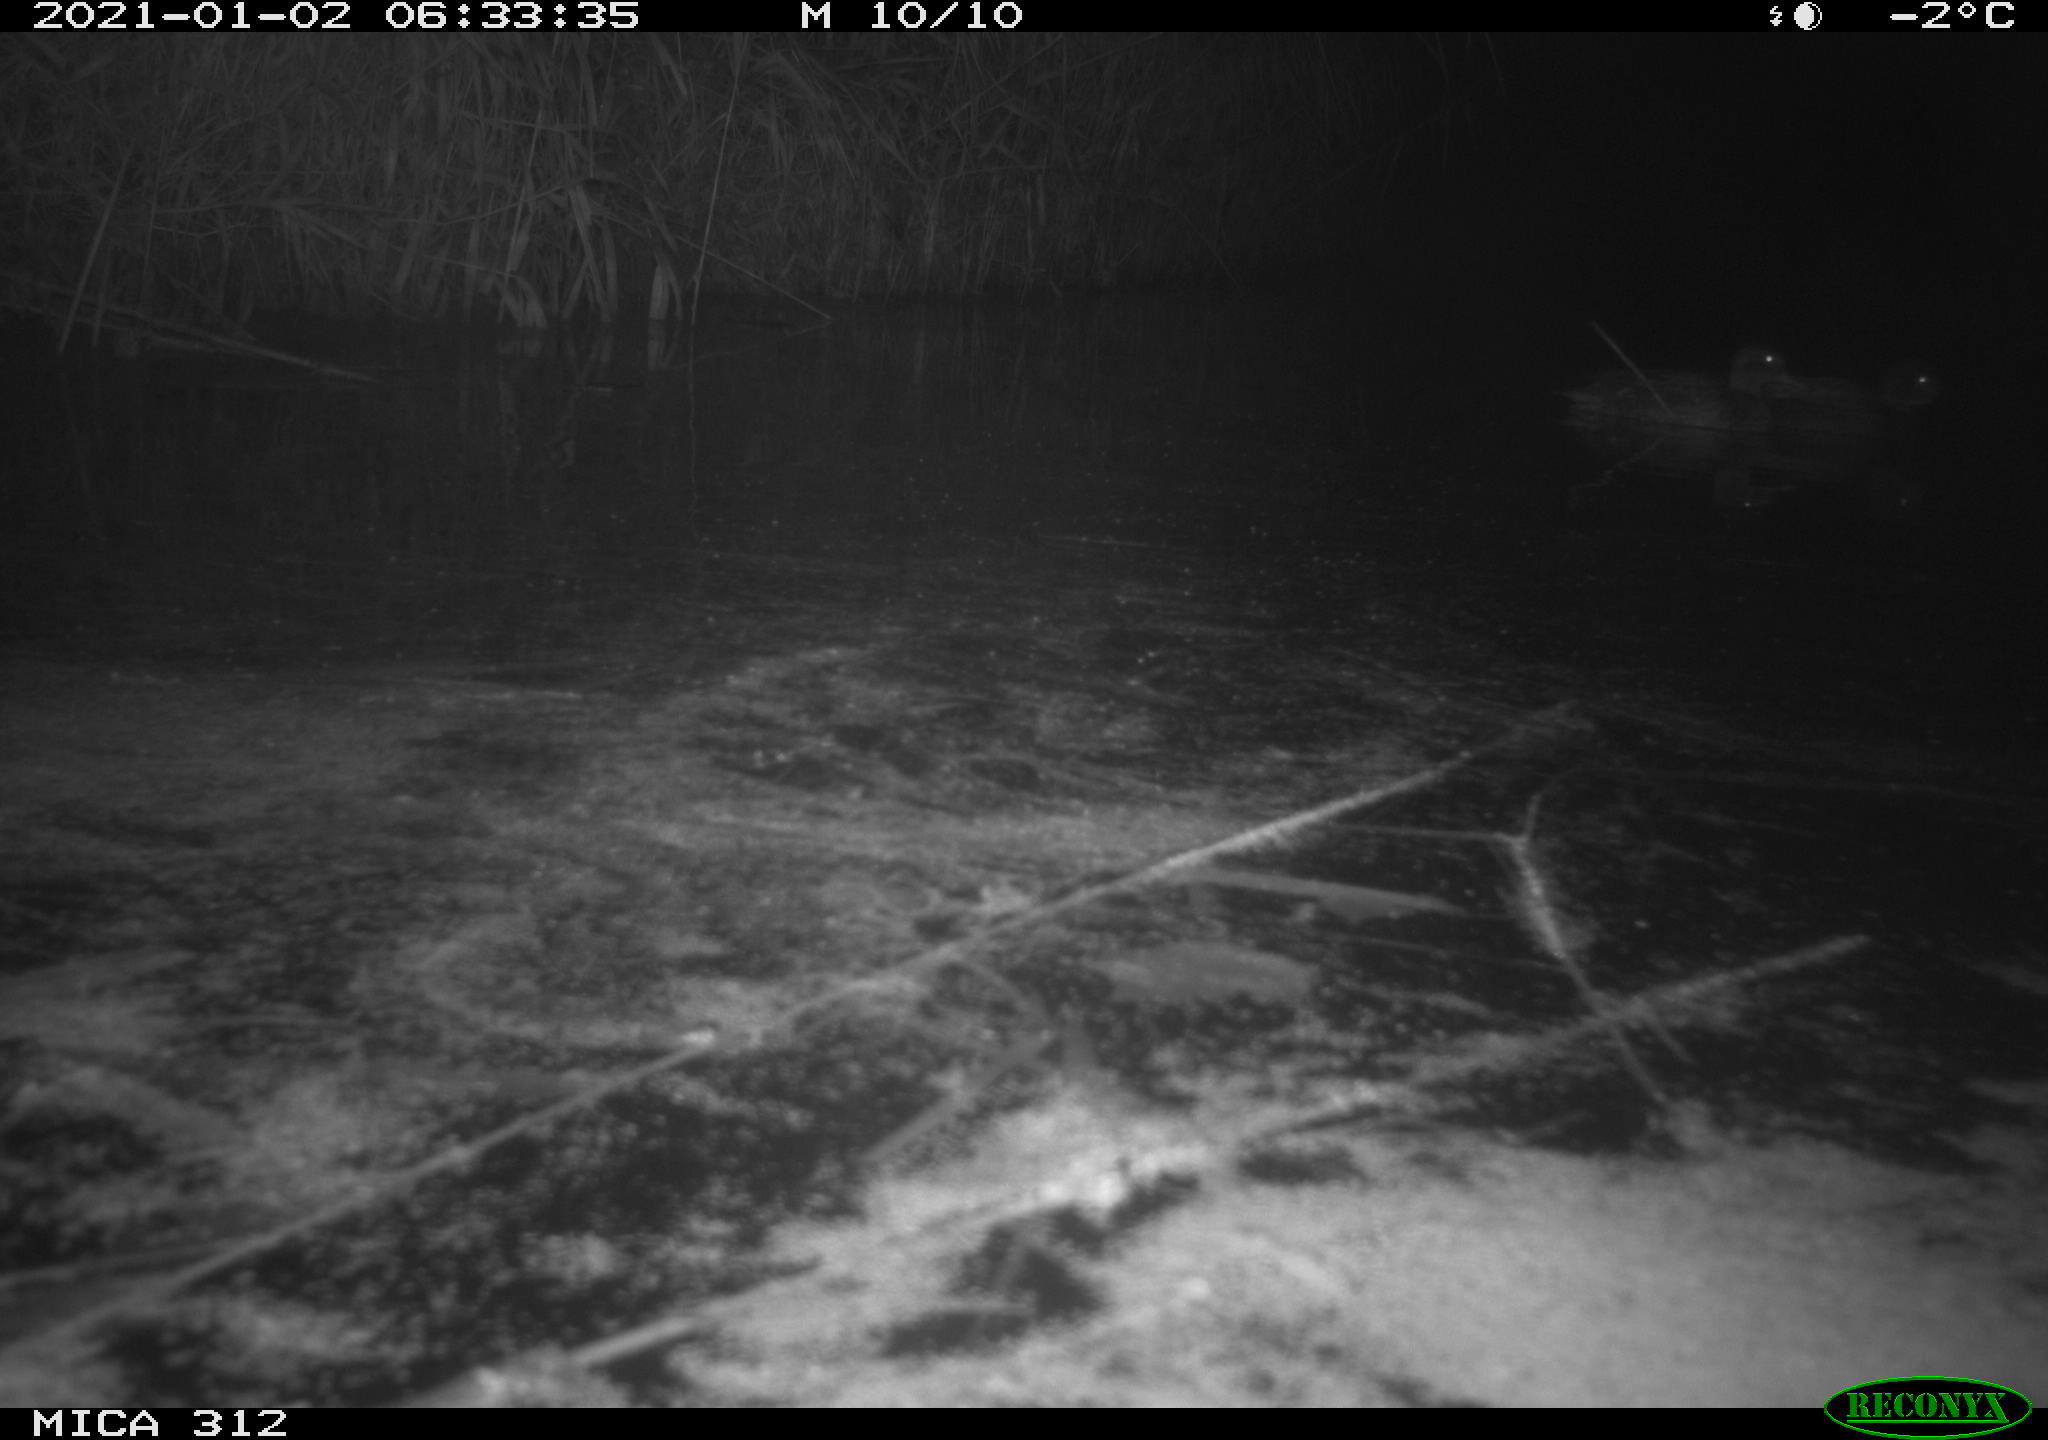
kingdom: Animalia
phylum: Chordata
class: Mammalia
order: Rodentia
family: Muridae
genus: Rattus
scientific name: Rattus norvegicus
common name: Brown rat
